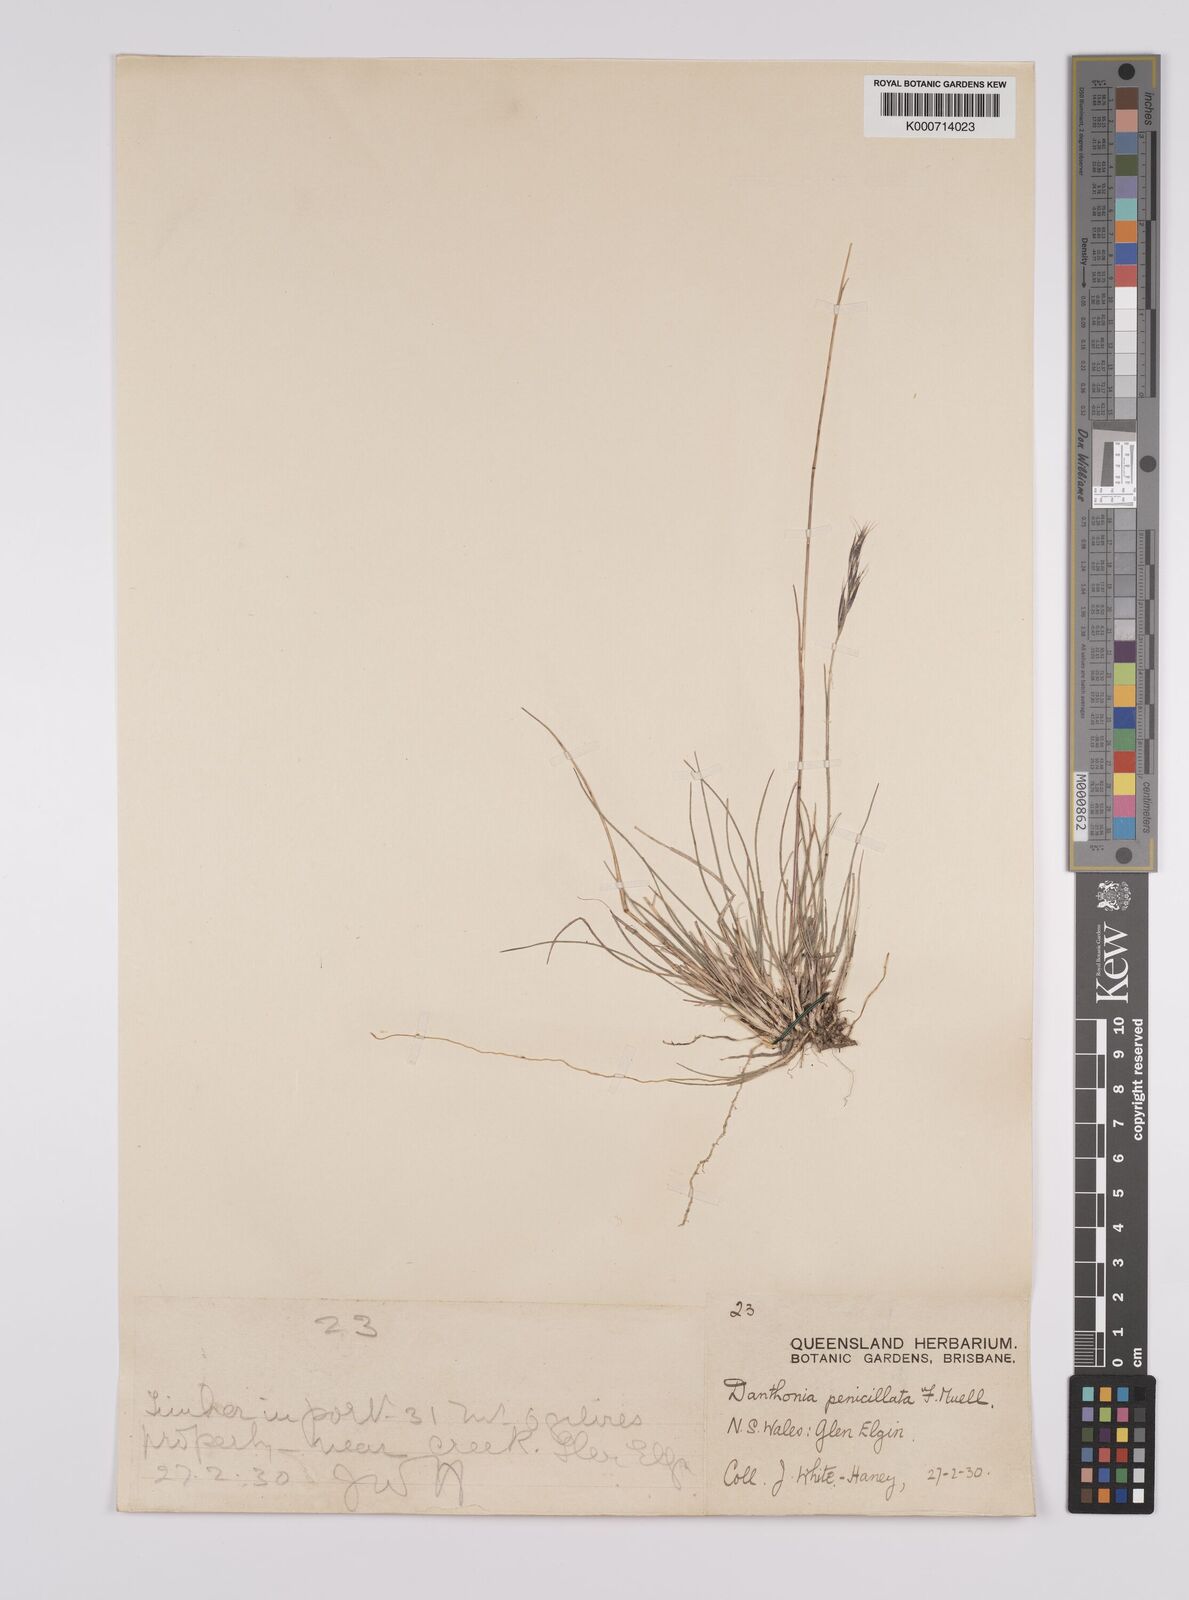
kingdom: Plantae
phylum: Tracheophyta
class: Liliopsida
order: Poales
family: Poaceae
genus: Rytidosperma
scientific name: Rytidosperma penicillatum
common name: Hairy wallaby grass
